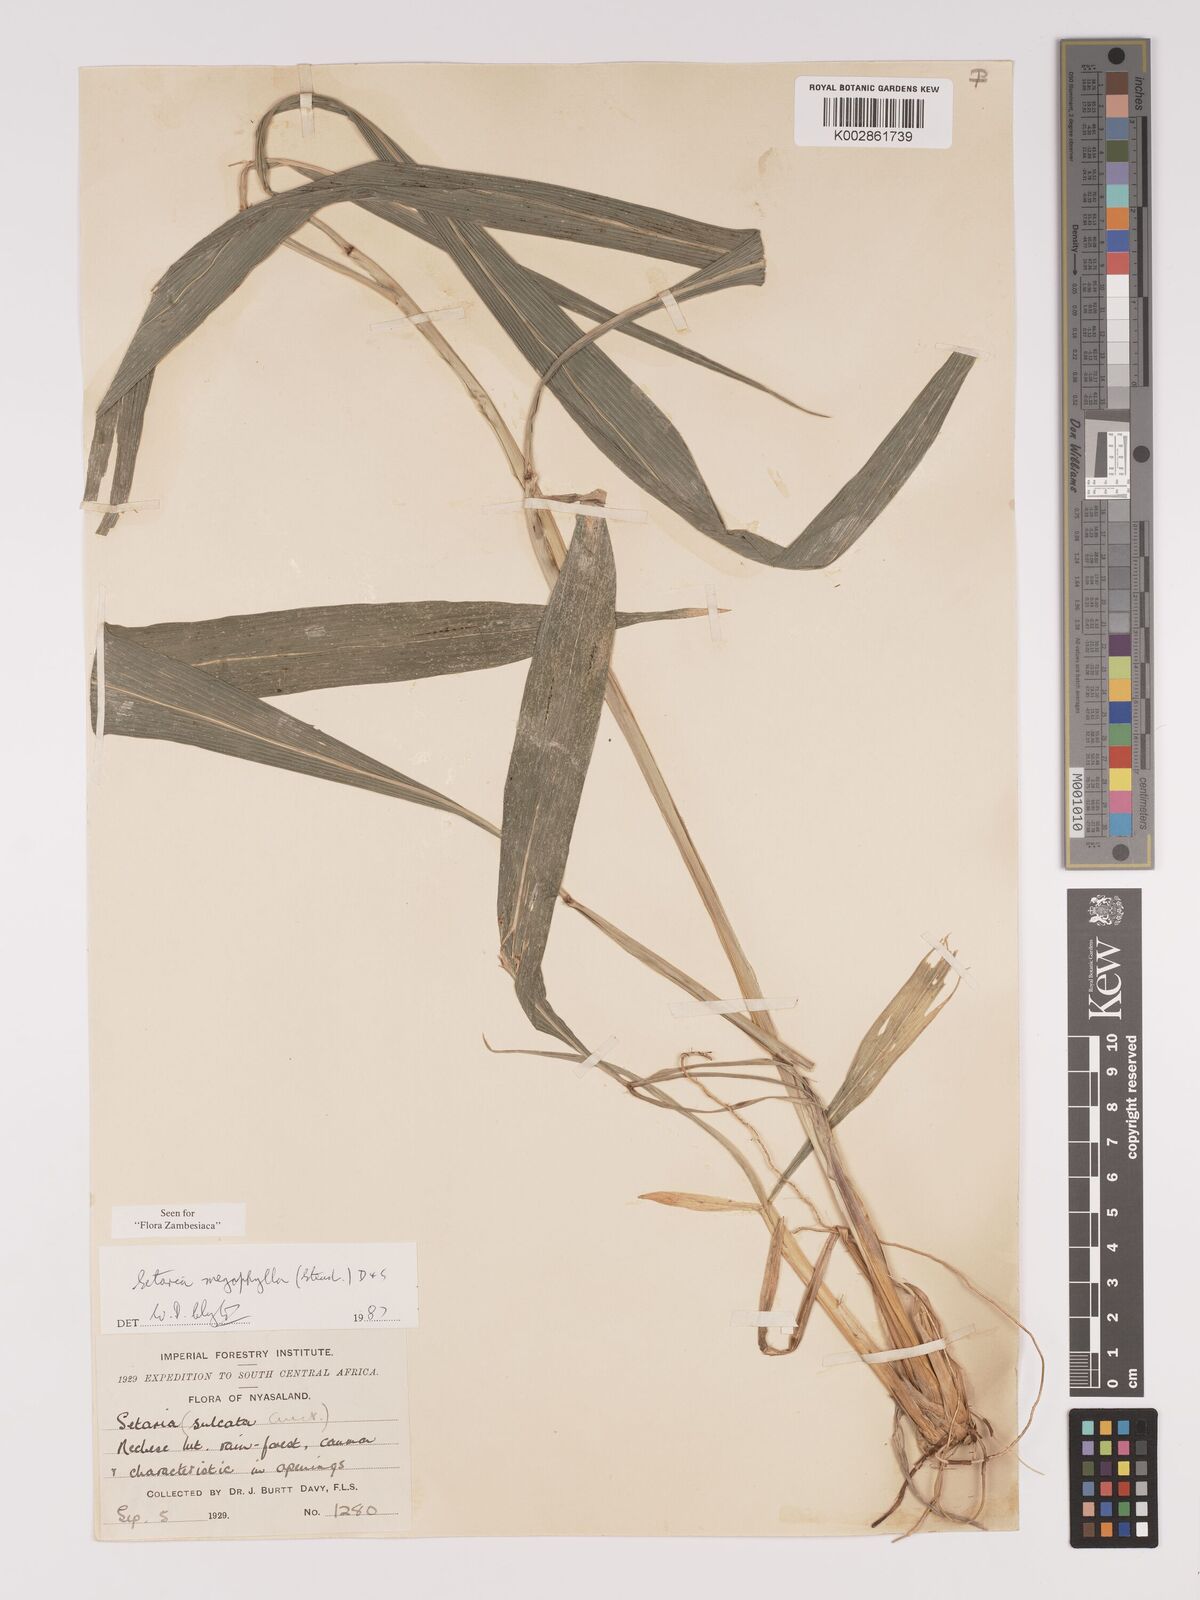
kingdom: Plantae
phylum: Tracheophyta
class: Liliopsida
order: Poales
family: Poaceae
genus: Setaria
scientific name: Setaria megaphylla
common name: Bigleaf bristlegrass
